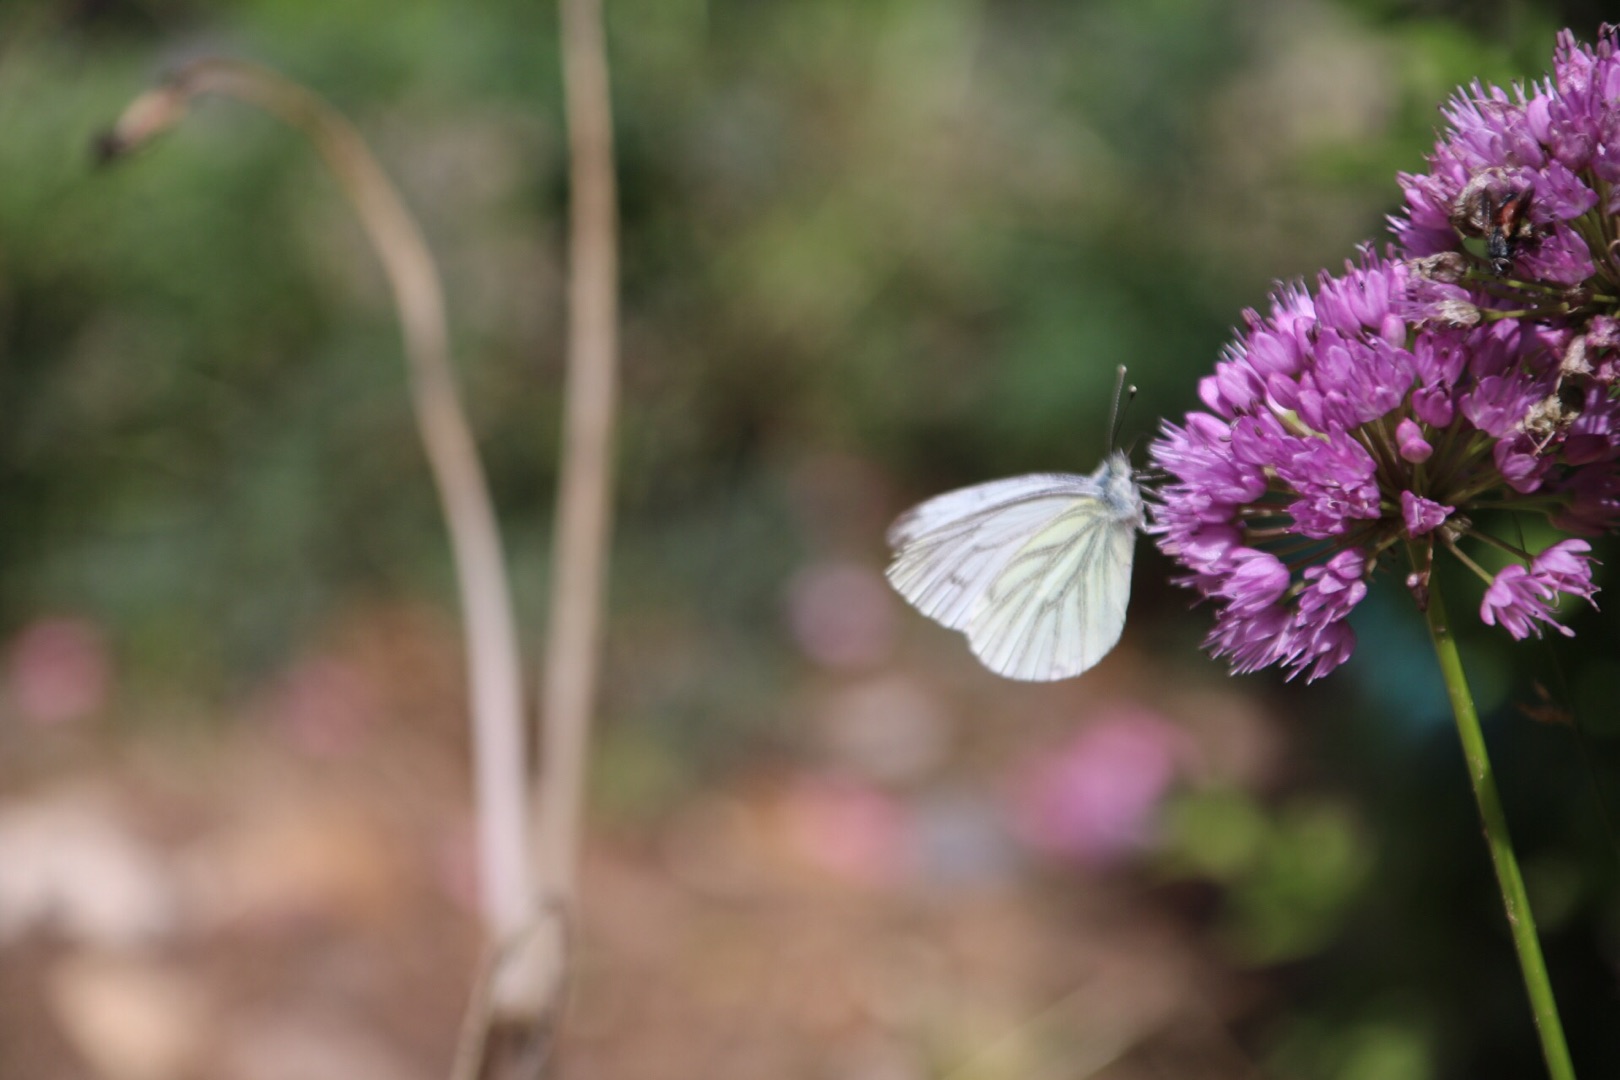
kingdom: Animalia
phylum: Arthropoda
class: Insecta
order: Lepidoptera
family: Pieridae
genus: Pieris
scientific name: Pieris napi
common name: Grønåret kålsommerfugl
